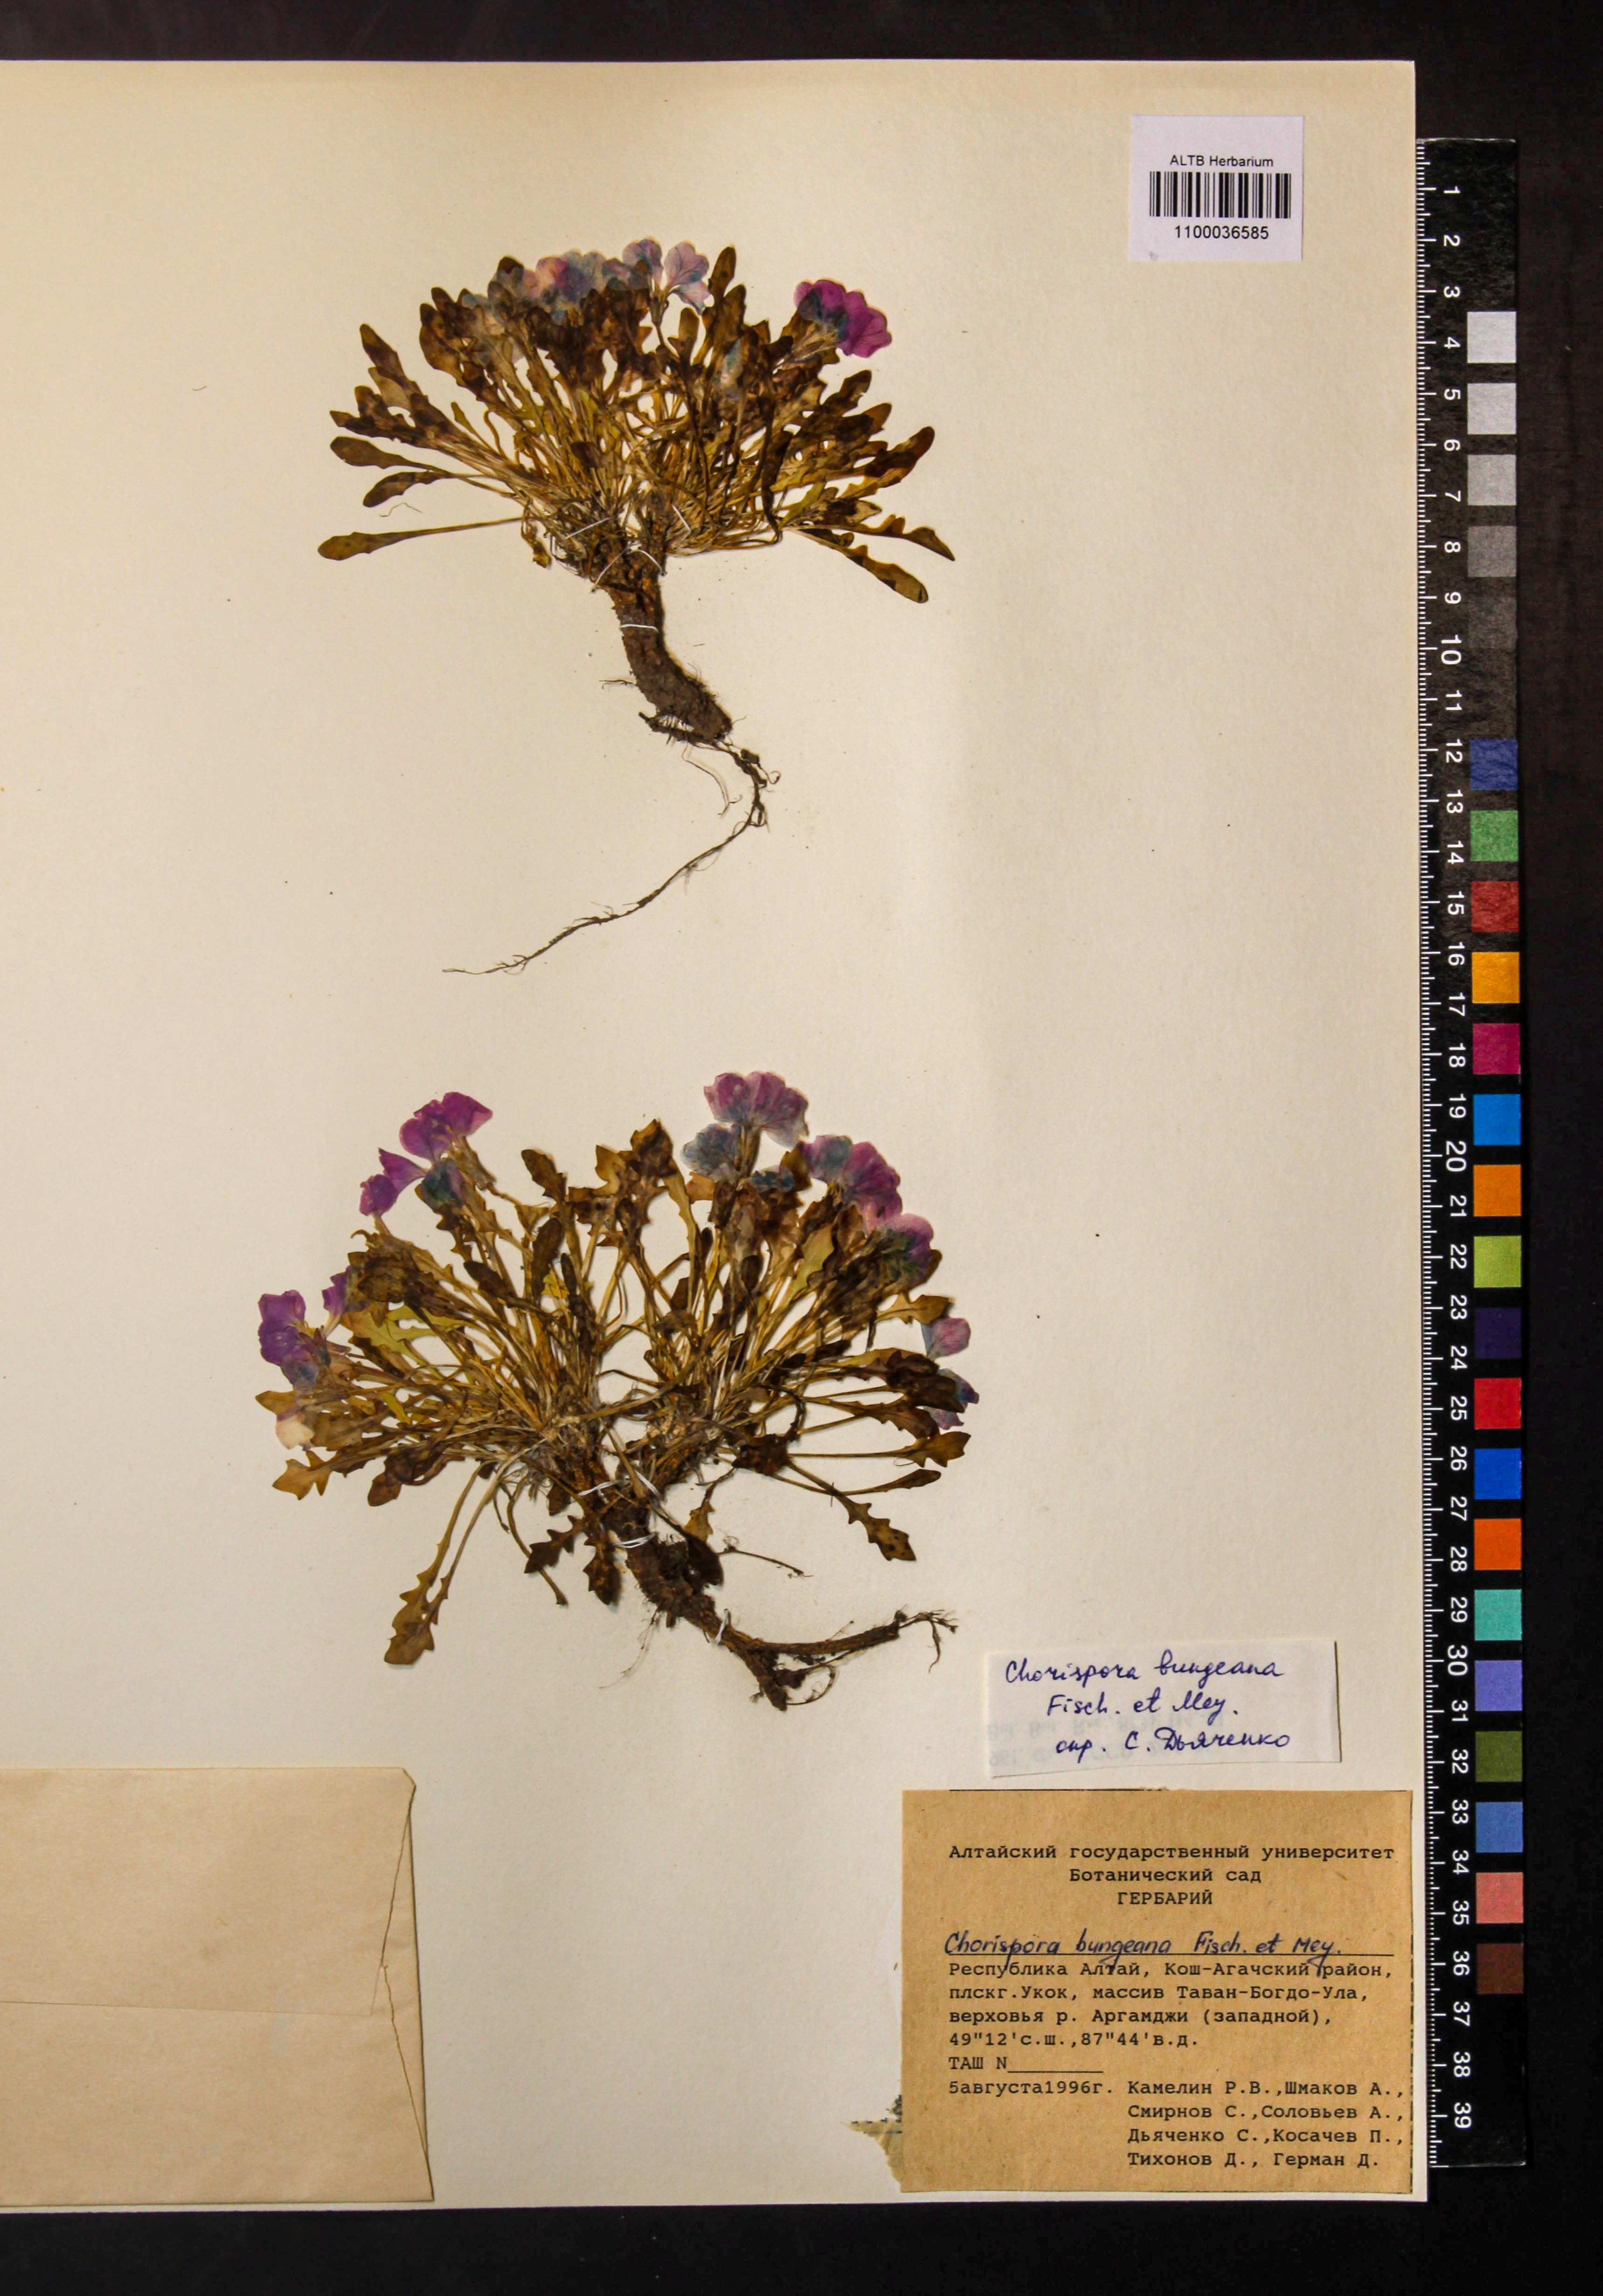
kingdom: Plantae
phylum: Tracheophyta
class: Magnoliopsida
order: Brassicales
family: Brassicaceae
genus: Chorispora
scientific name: Chorispora bungeana
